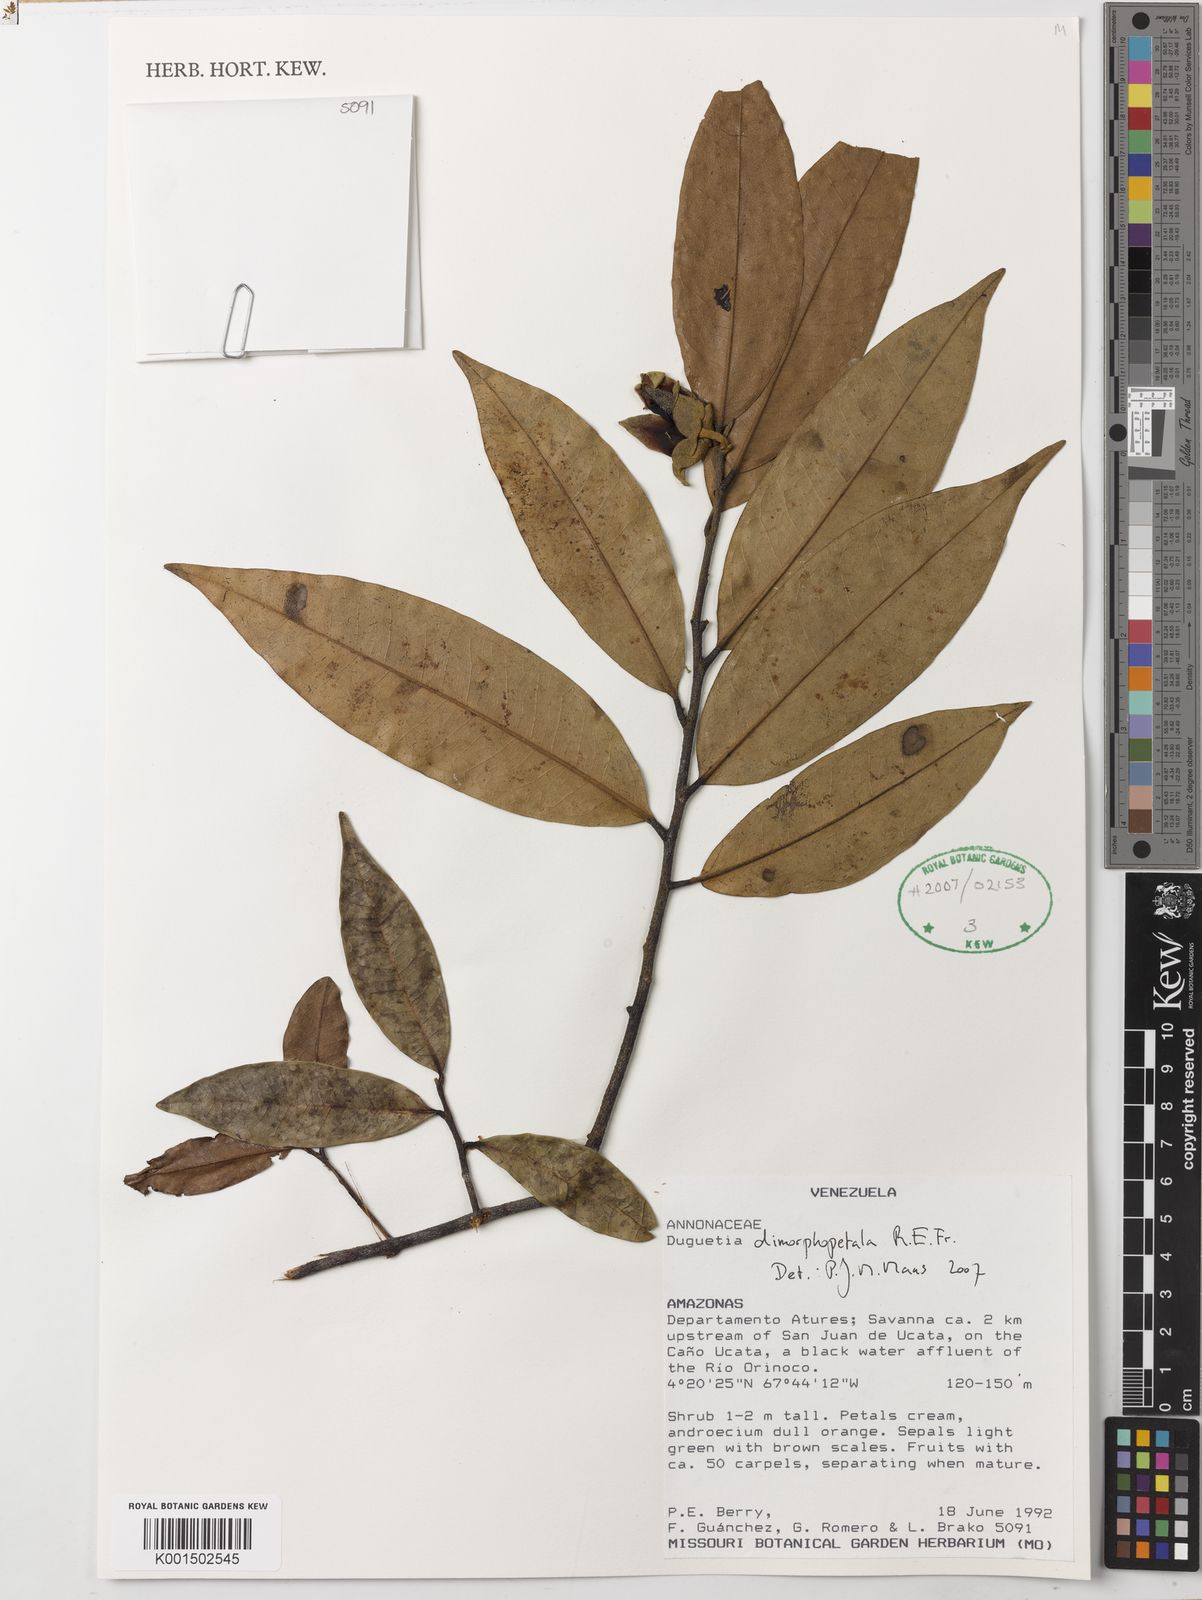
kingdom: Plantae
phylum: Tracheophyta
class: Magnoliopsida
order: Magnoliales
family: Annonaceae
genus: Duguetia
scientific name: Duguetia dimorphopetala
